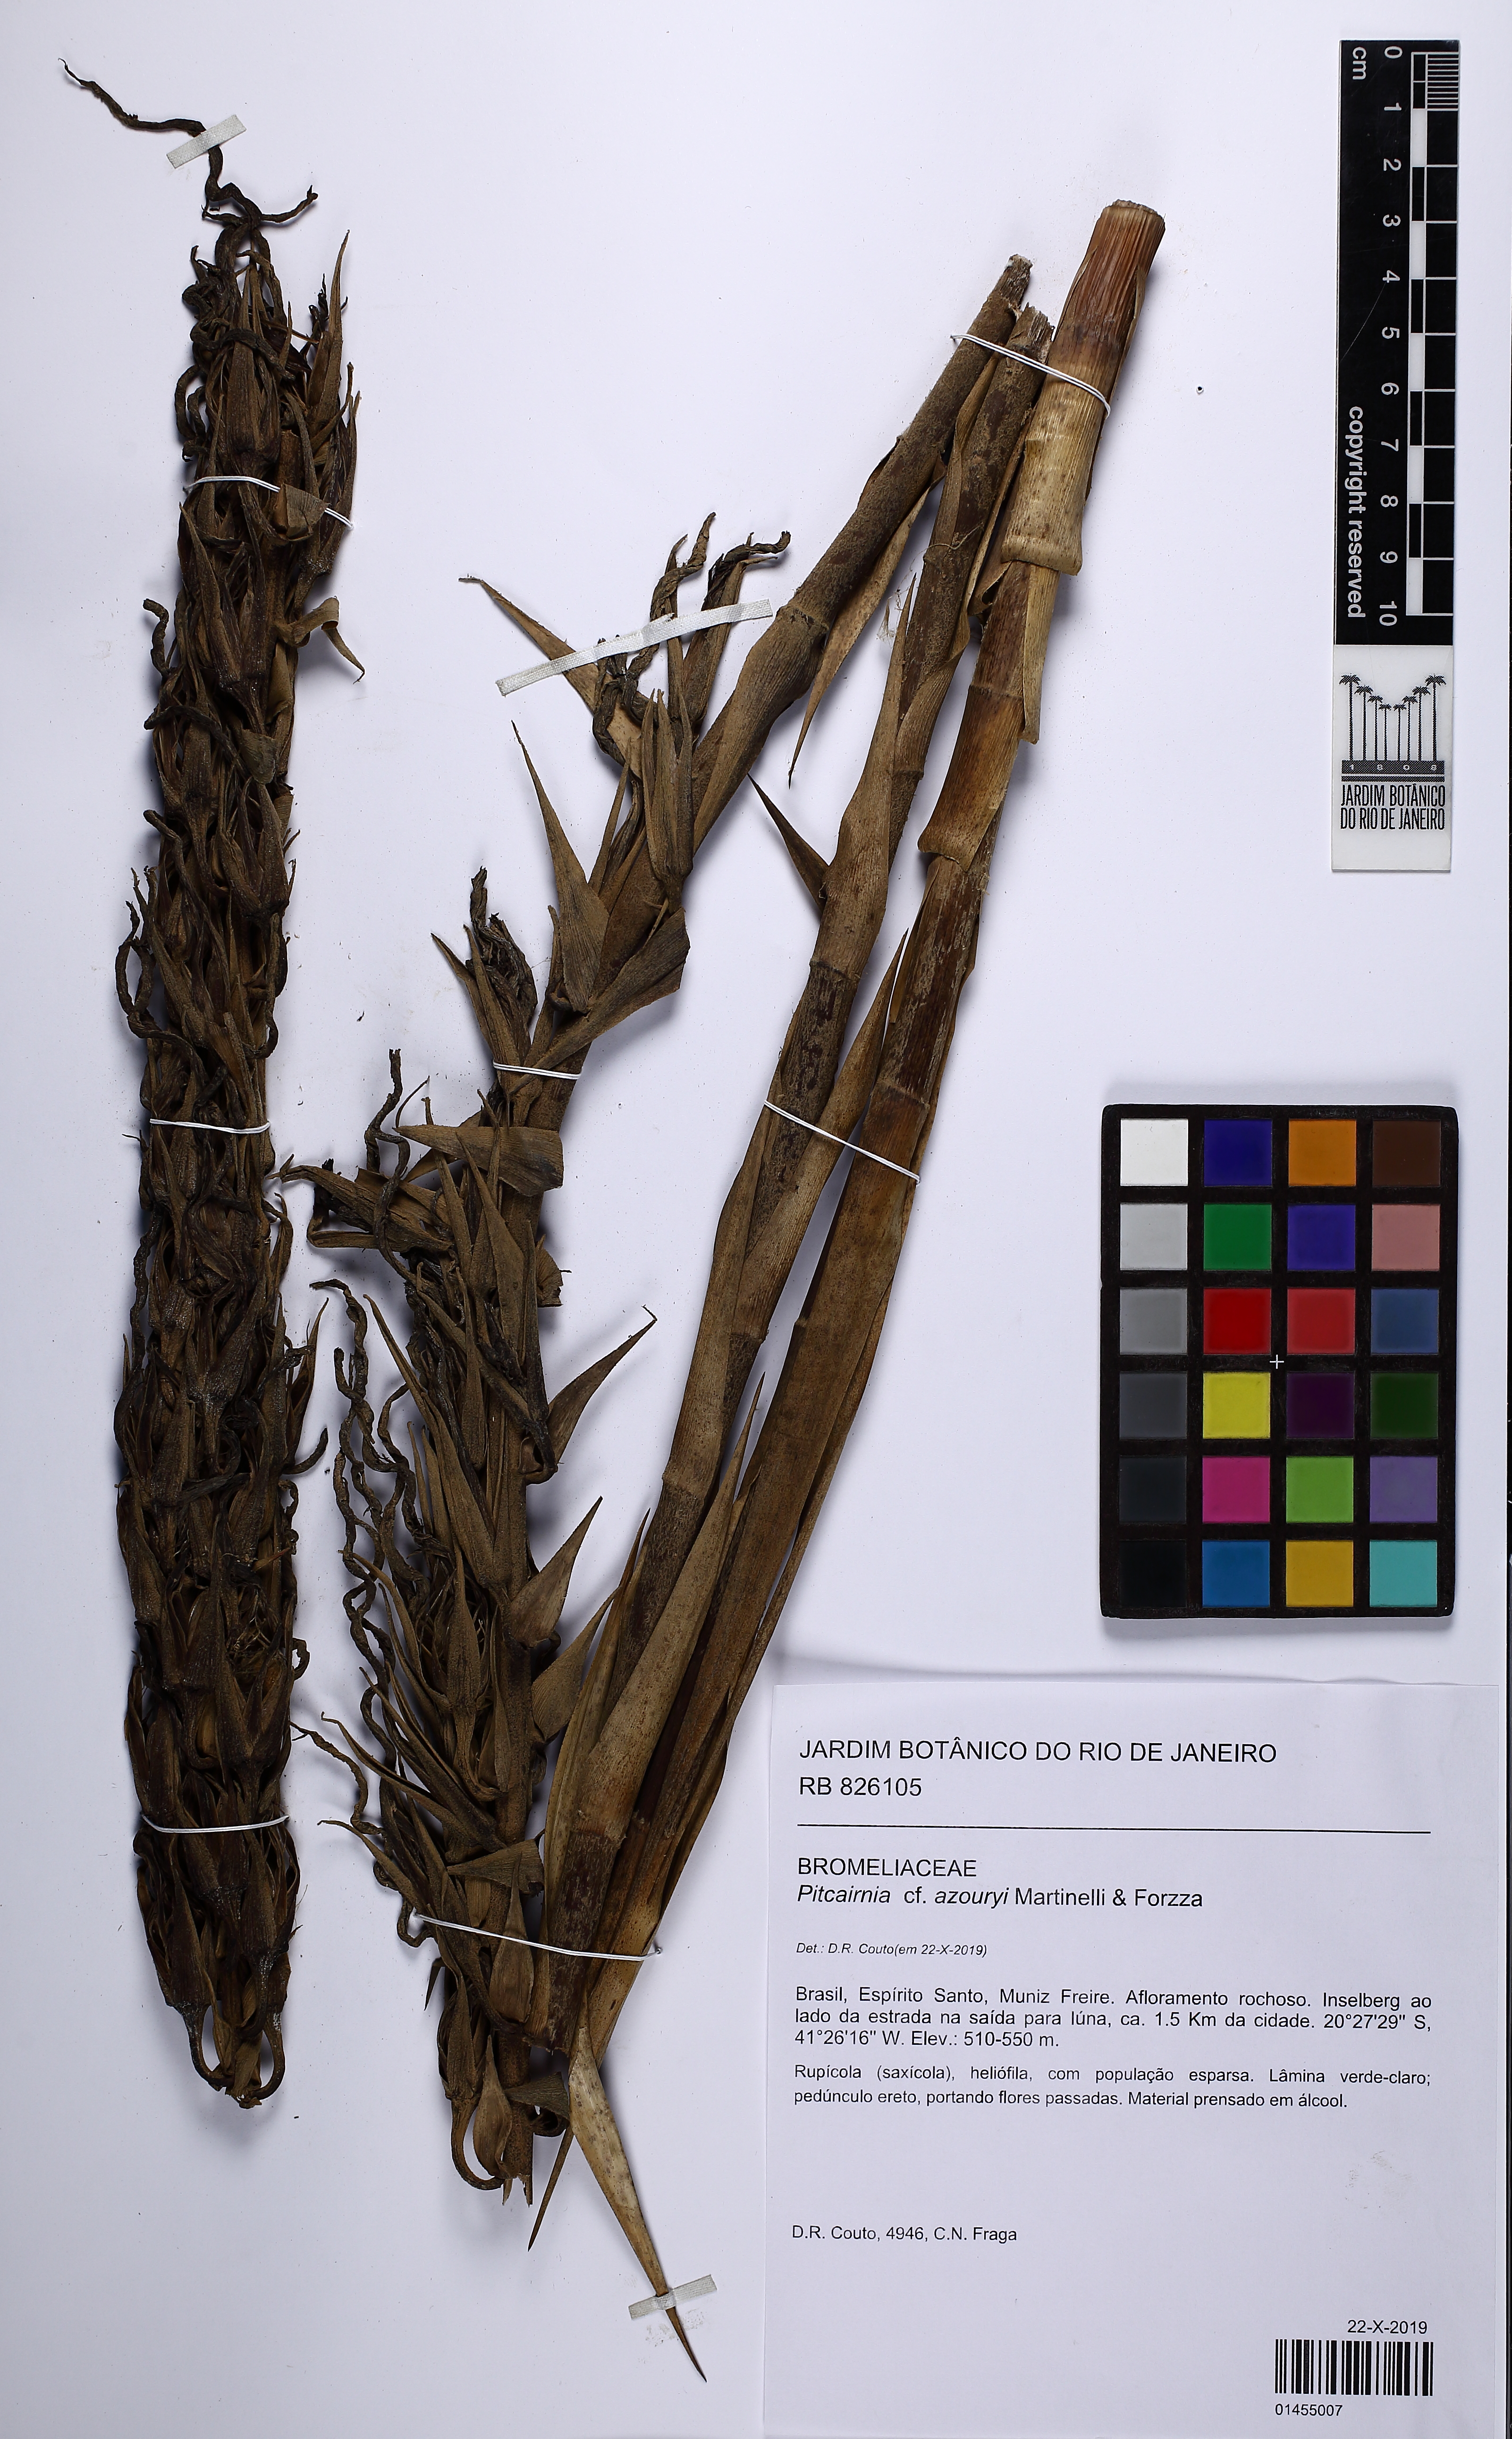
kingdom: Plantae
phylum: Tracheophyta
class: Liliopsida
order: Poales
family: Bromeliaceae
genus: Pitcairnia
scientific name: Pitcairnia azouryi
